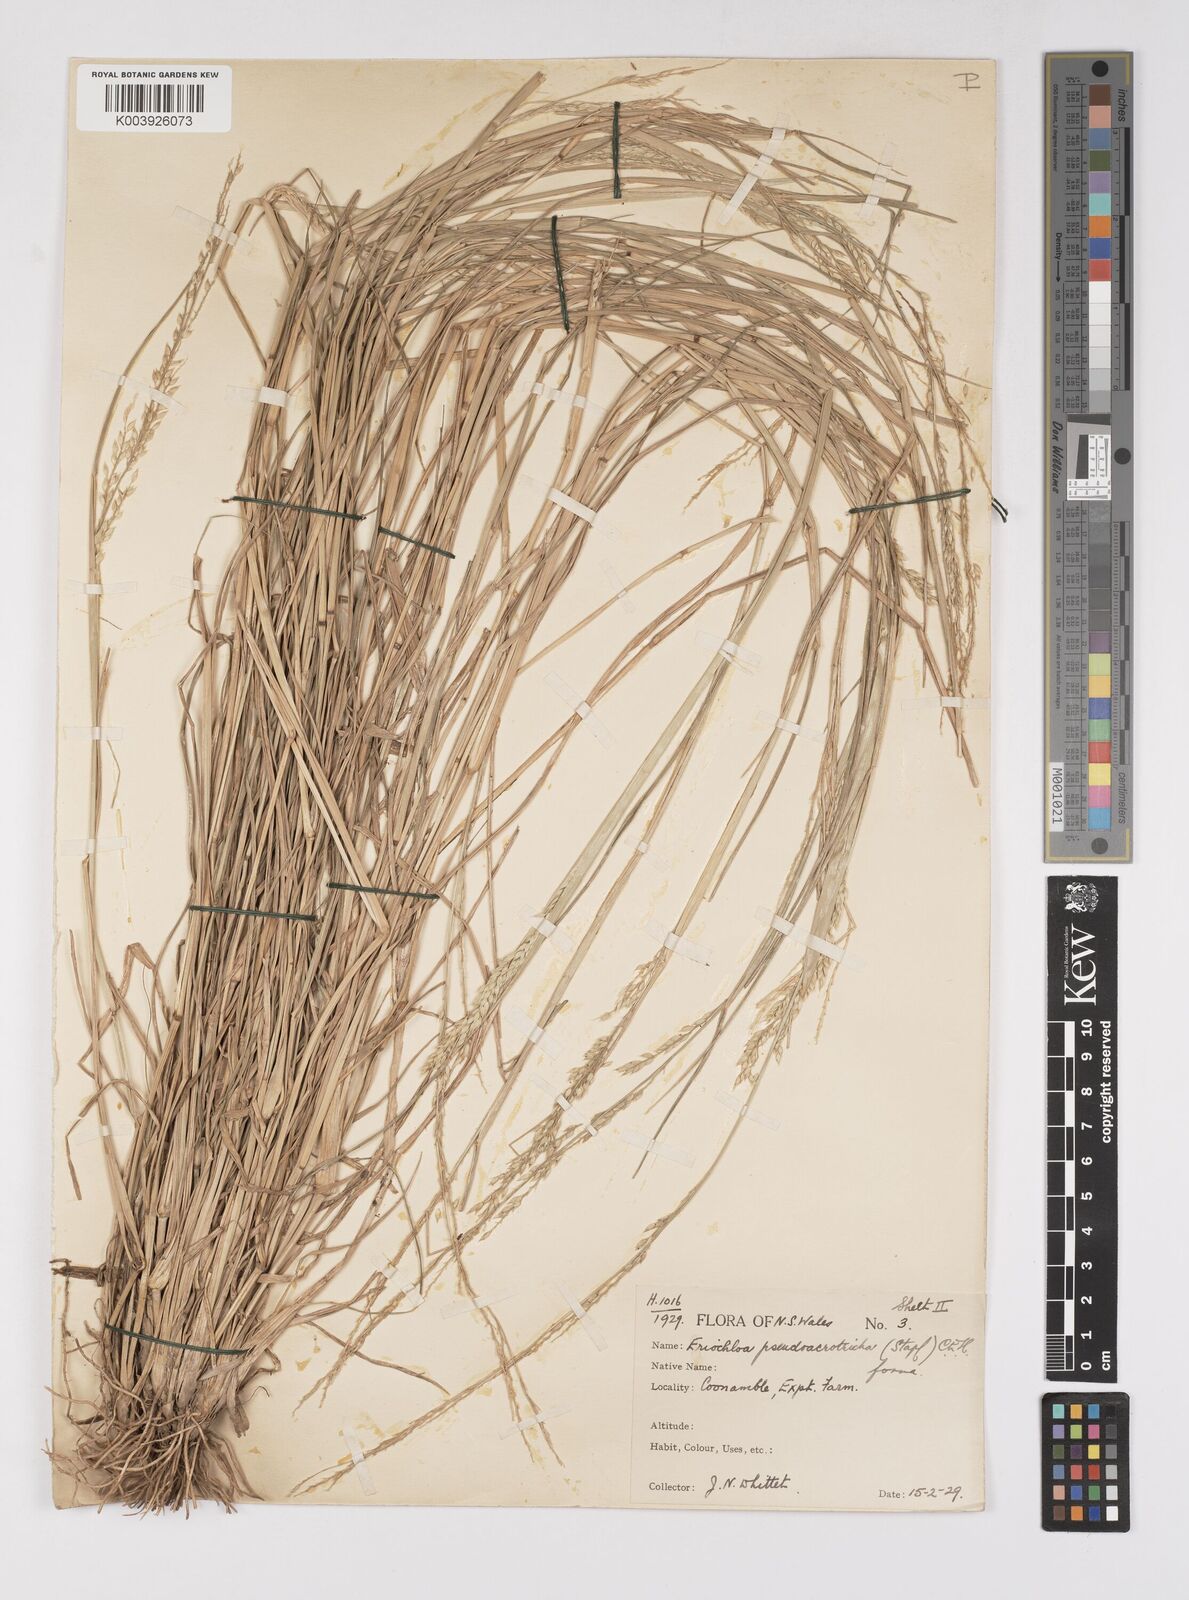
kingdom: Plantae
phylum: Tracheophyta
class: Liliopsida
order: Poales
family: Poaceae
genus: Eriochloa
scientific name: Eriochloa pseudoacrotricha
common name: Perennial cup-grass
